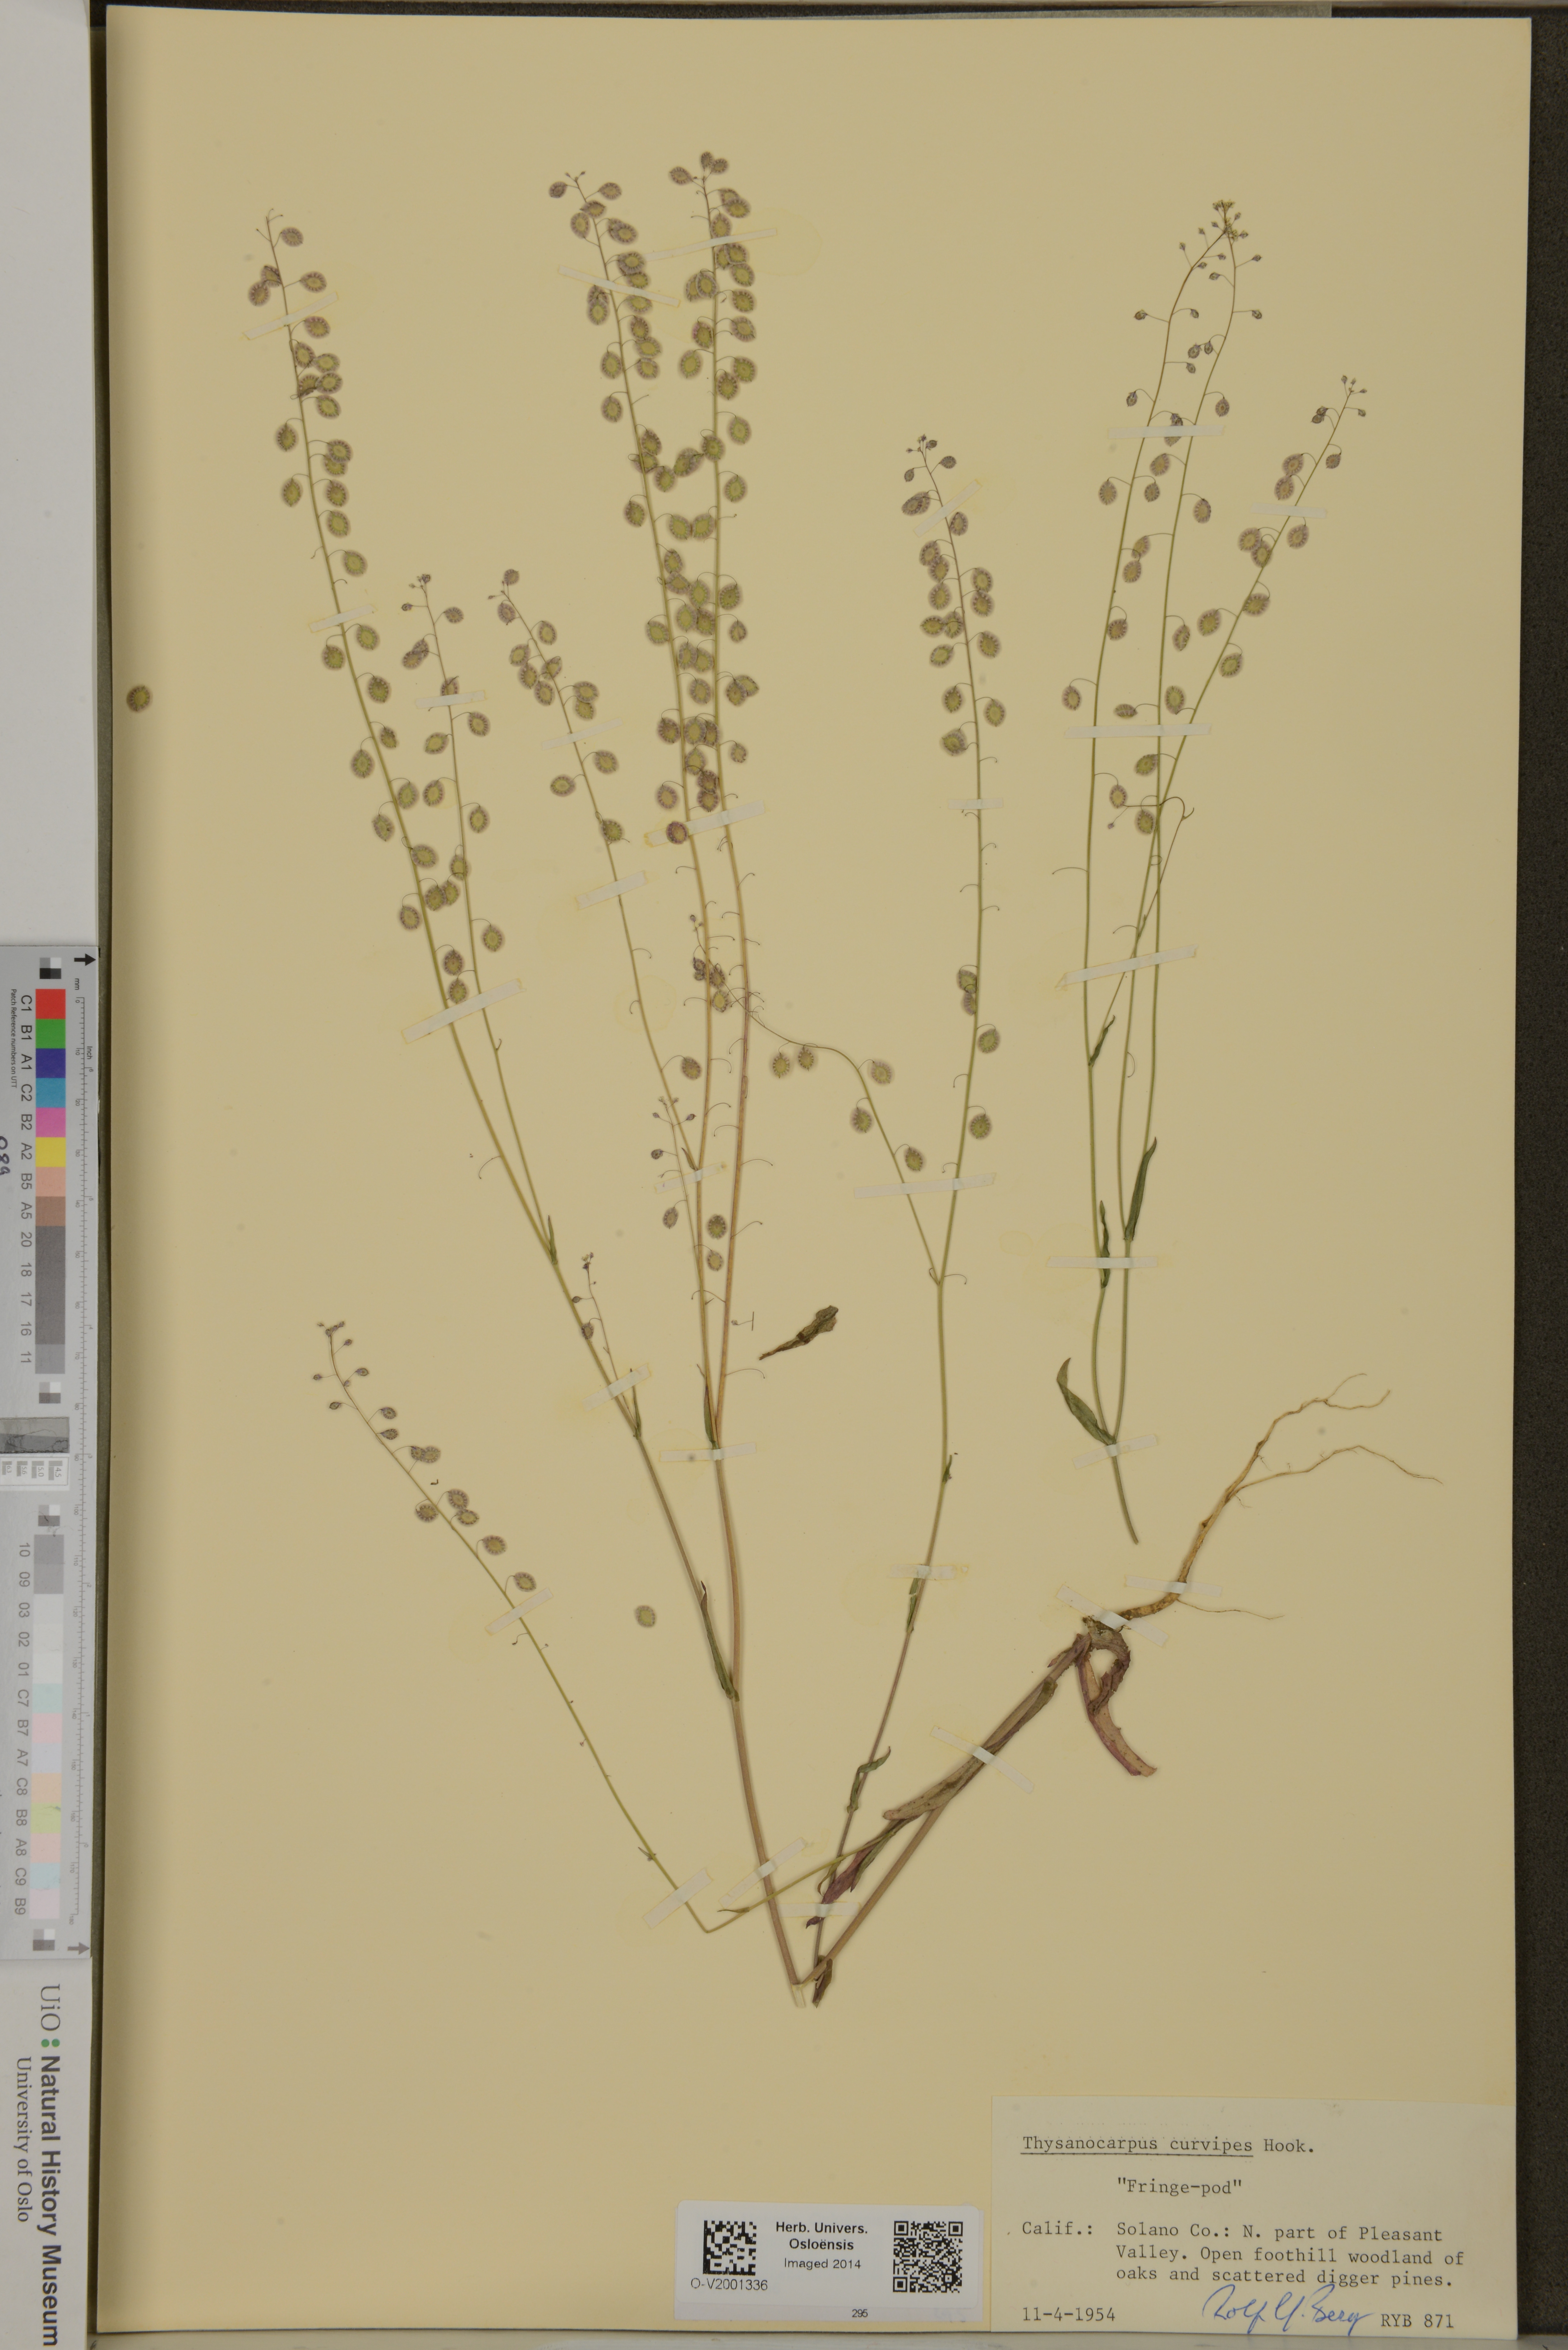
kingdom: Plantae
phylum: Tracheophyta
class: Magnoliopsida
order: Brassicales
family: Brassicaceae
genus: Thysanocarpus
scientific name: Thysanocarpus curvipes
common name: Sand fringepod
